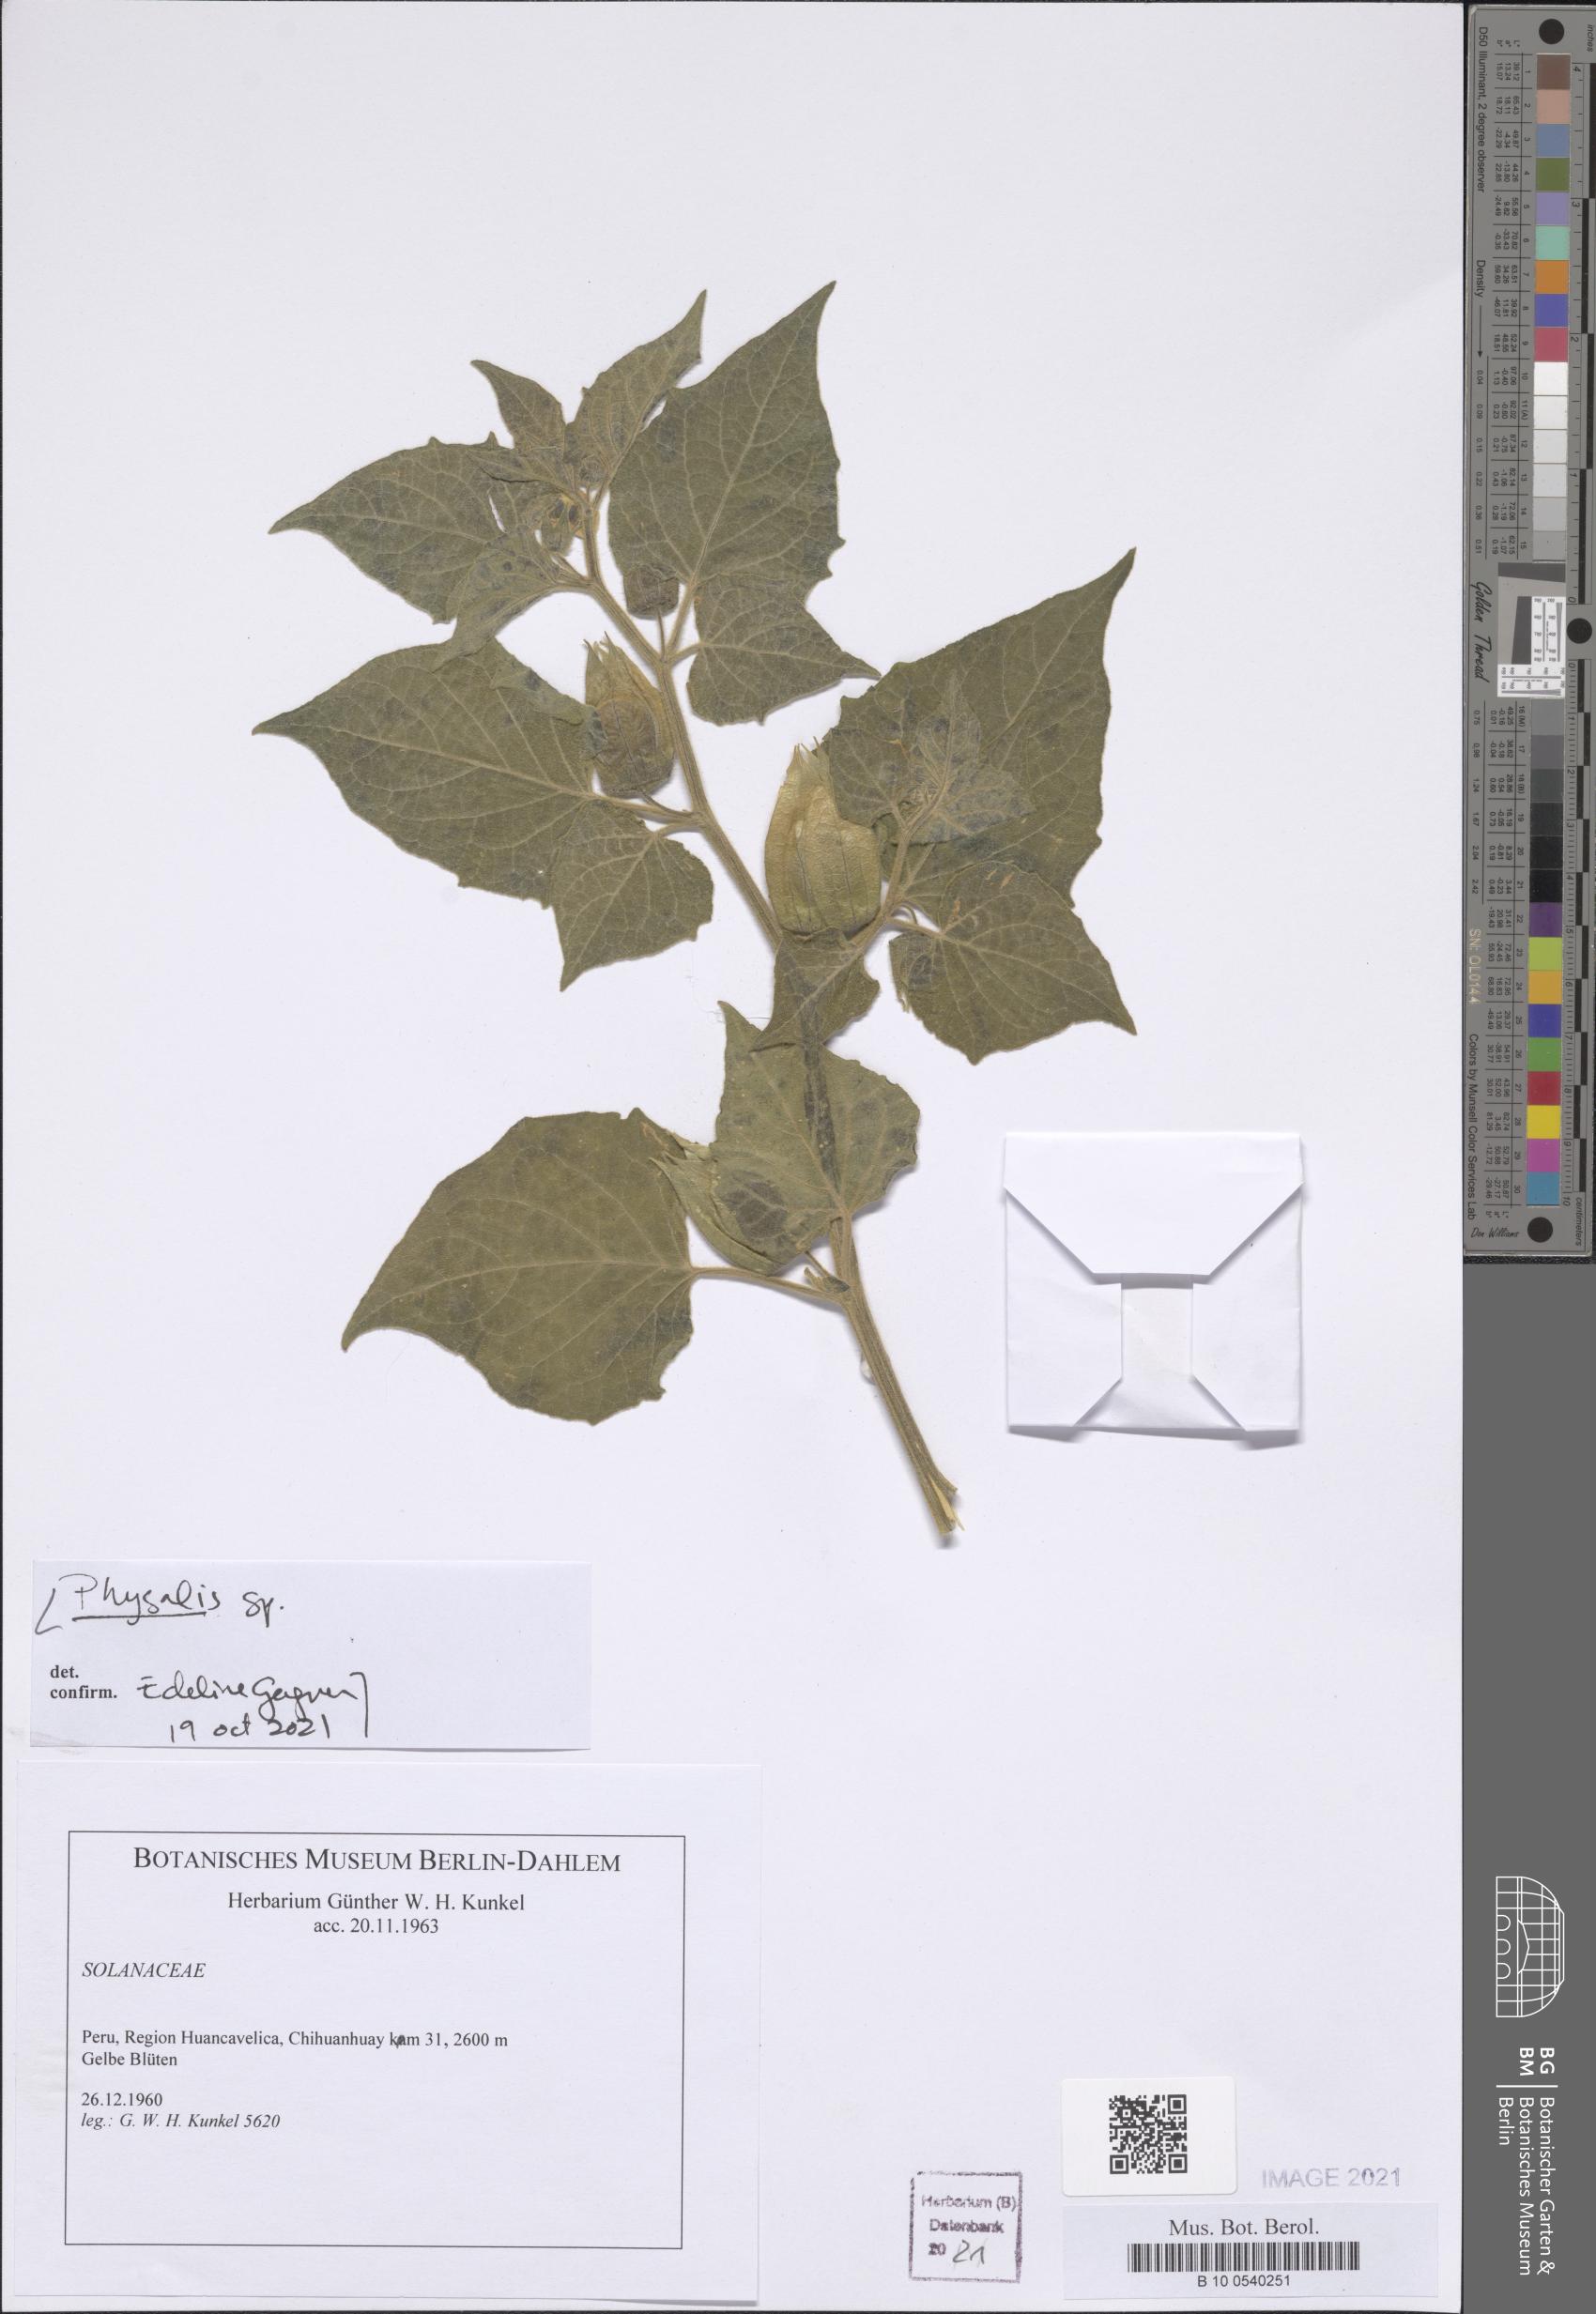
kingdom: Plantae
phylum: Tracheophyta
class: Magnoliopsida
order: Solanales
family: Solanaceae
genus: Physalis
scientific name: Physalis peruviana
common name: Cape-gooseberry
